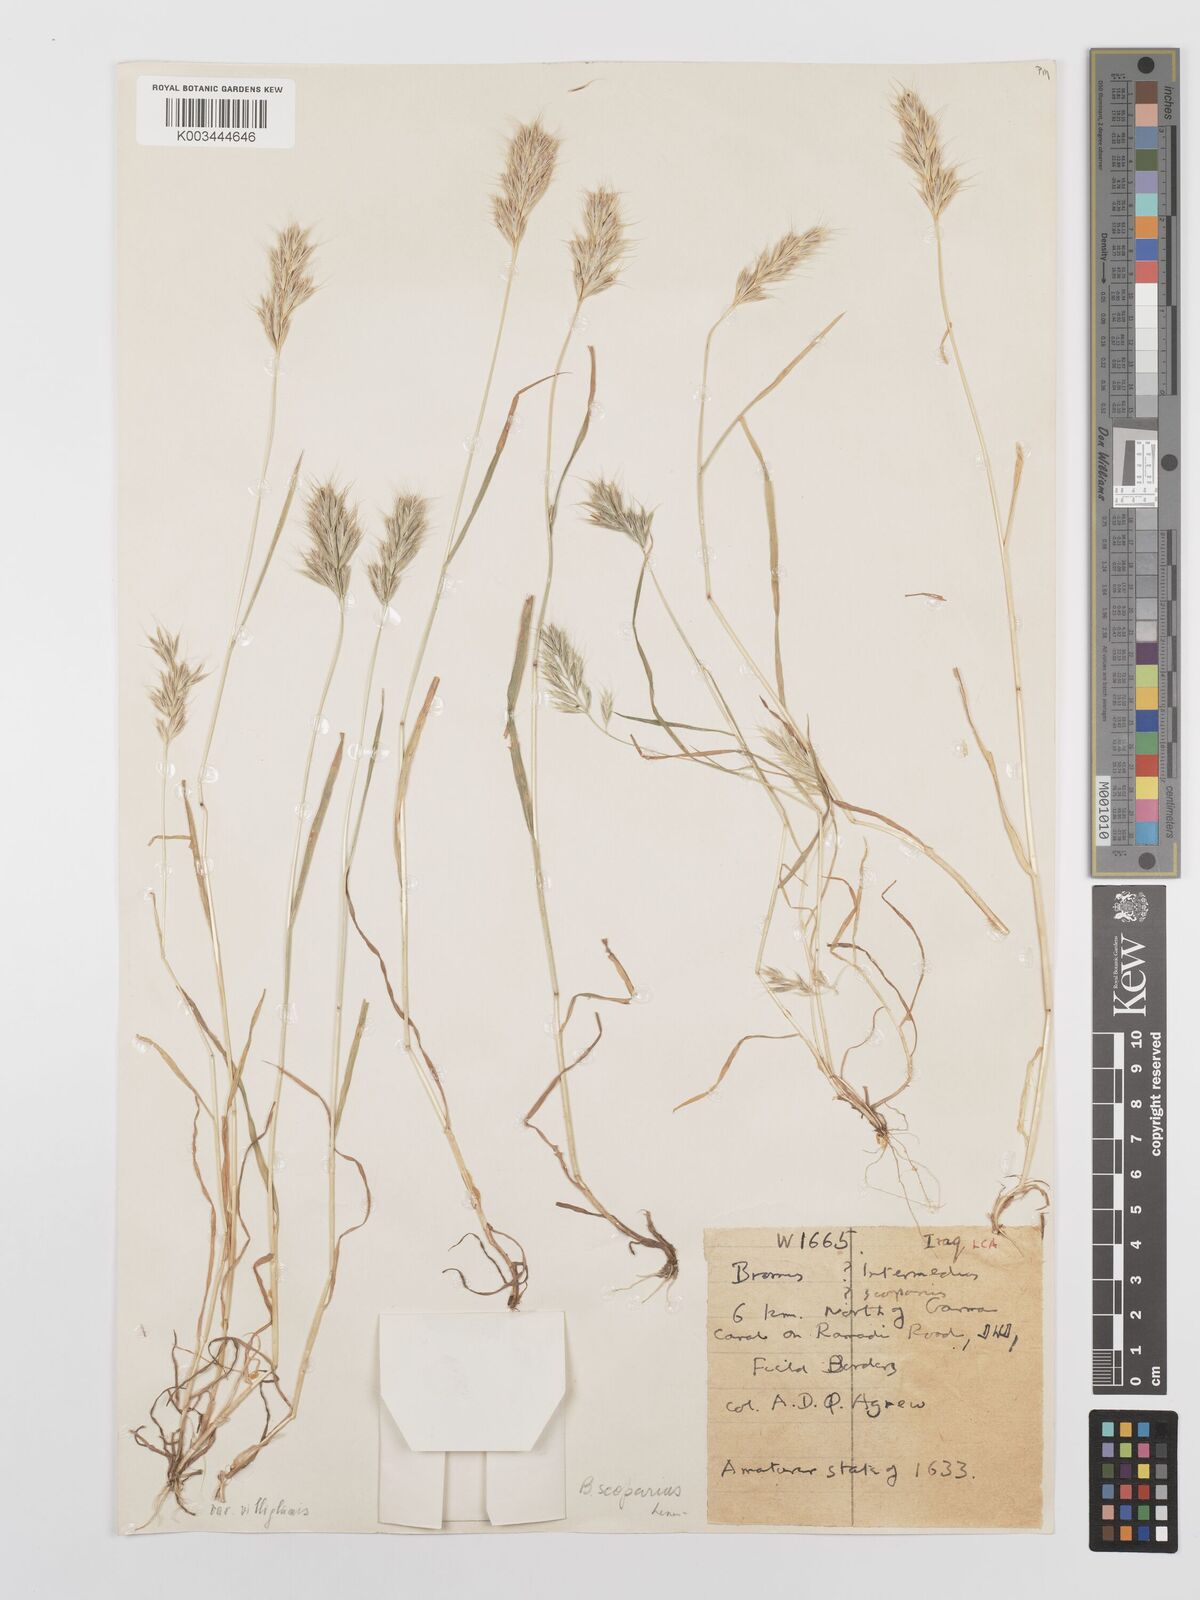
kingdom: Plantae
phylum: Tracheophyta
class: Liliopsida
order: Poales
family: Poaceae
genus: Bromus
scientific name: Bromus scoparius
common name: Broom brome
